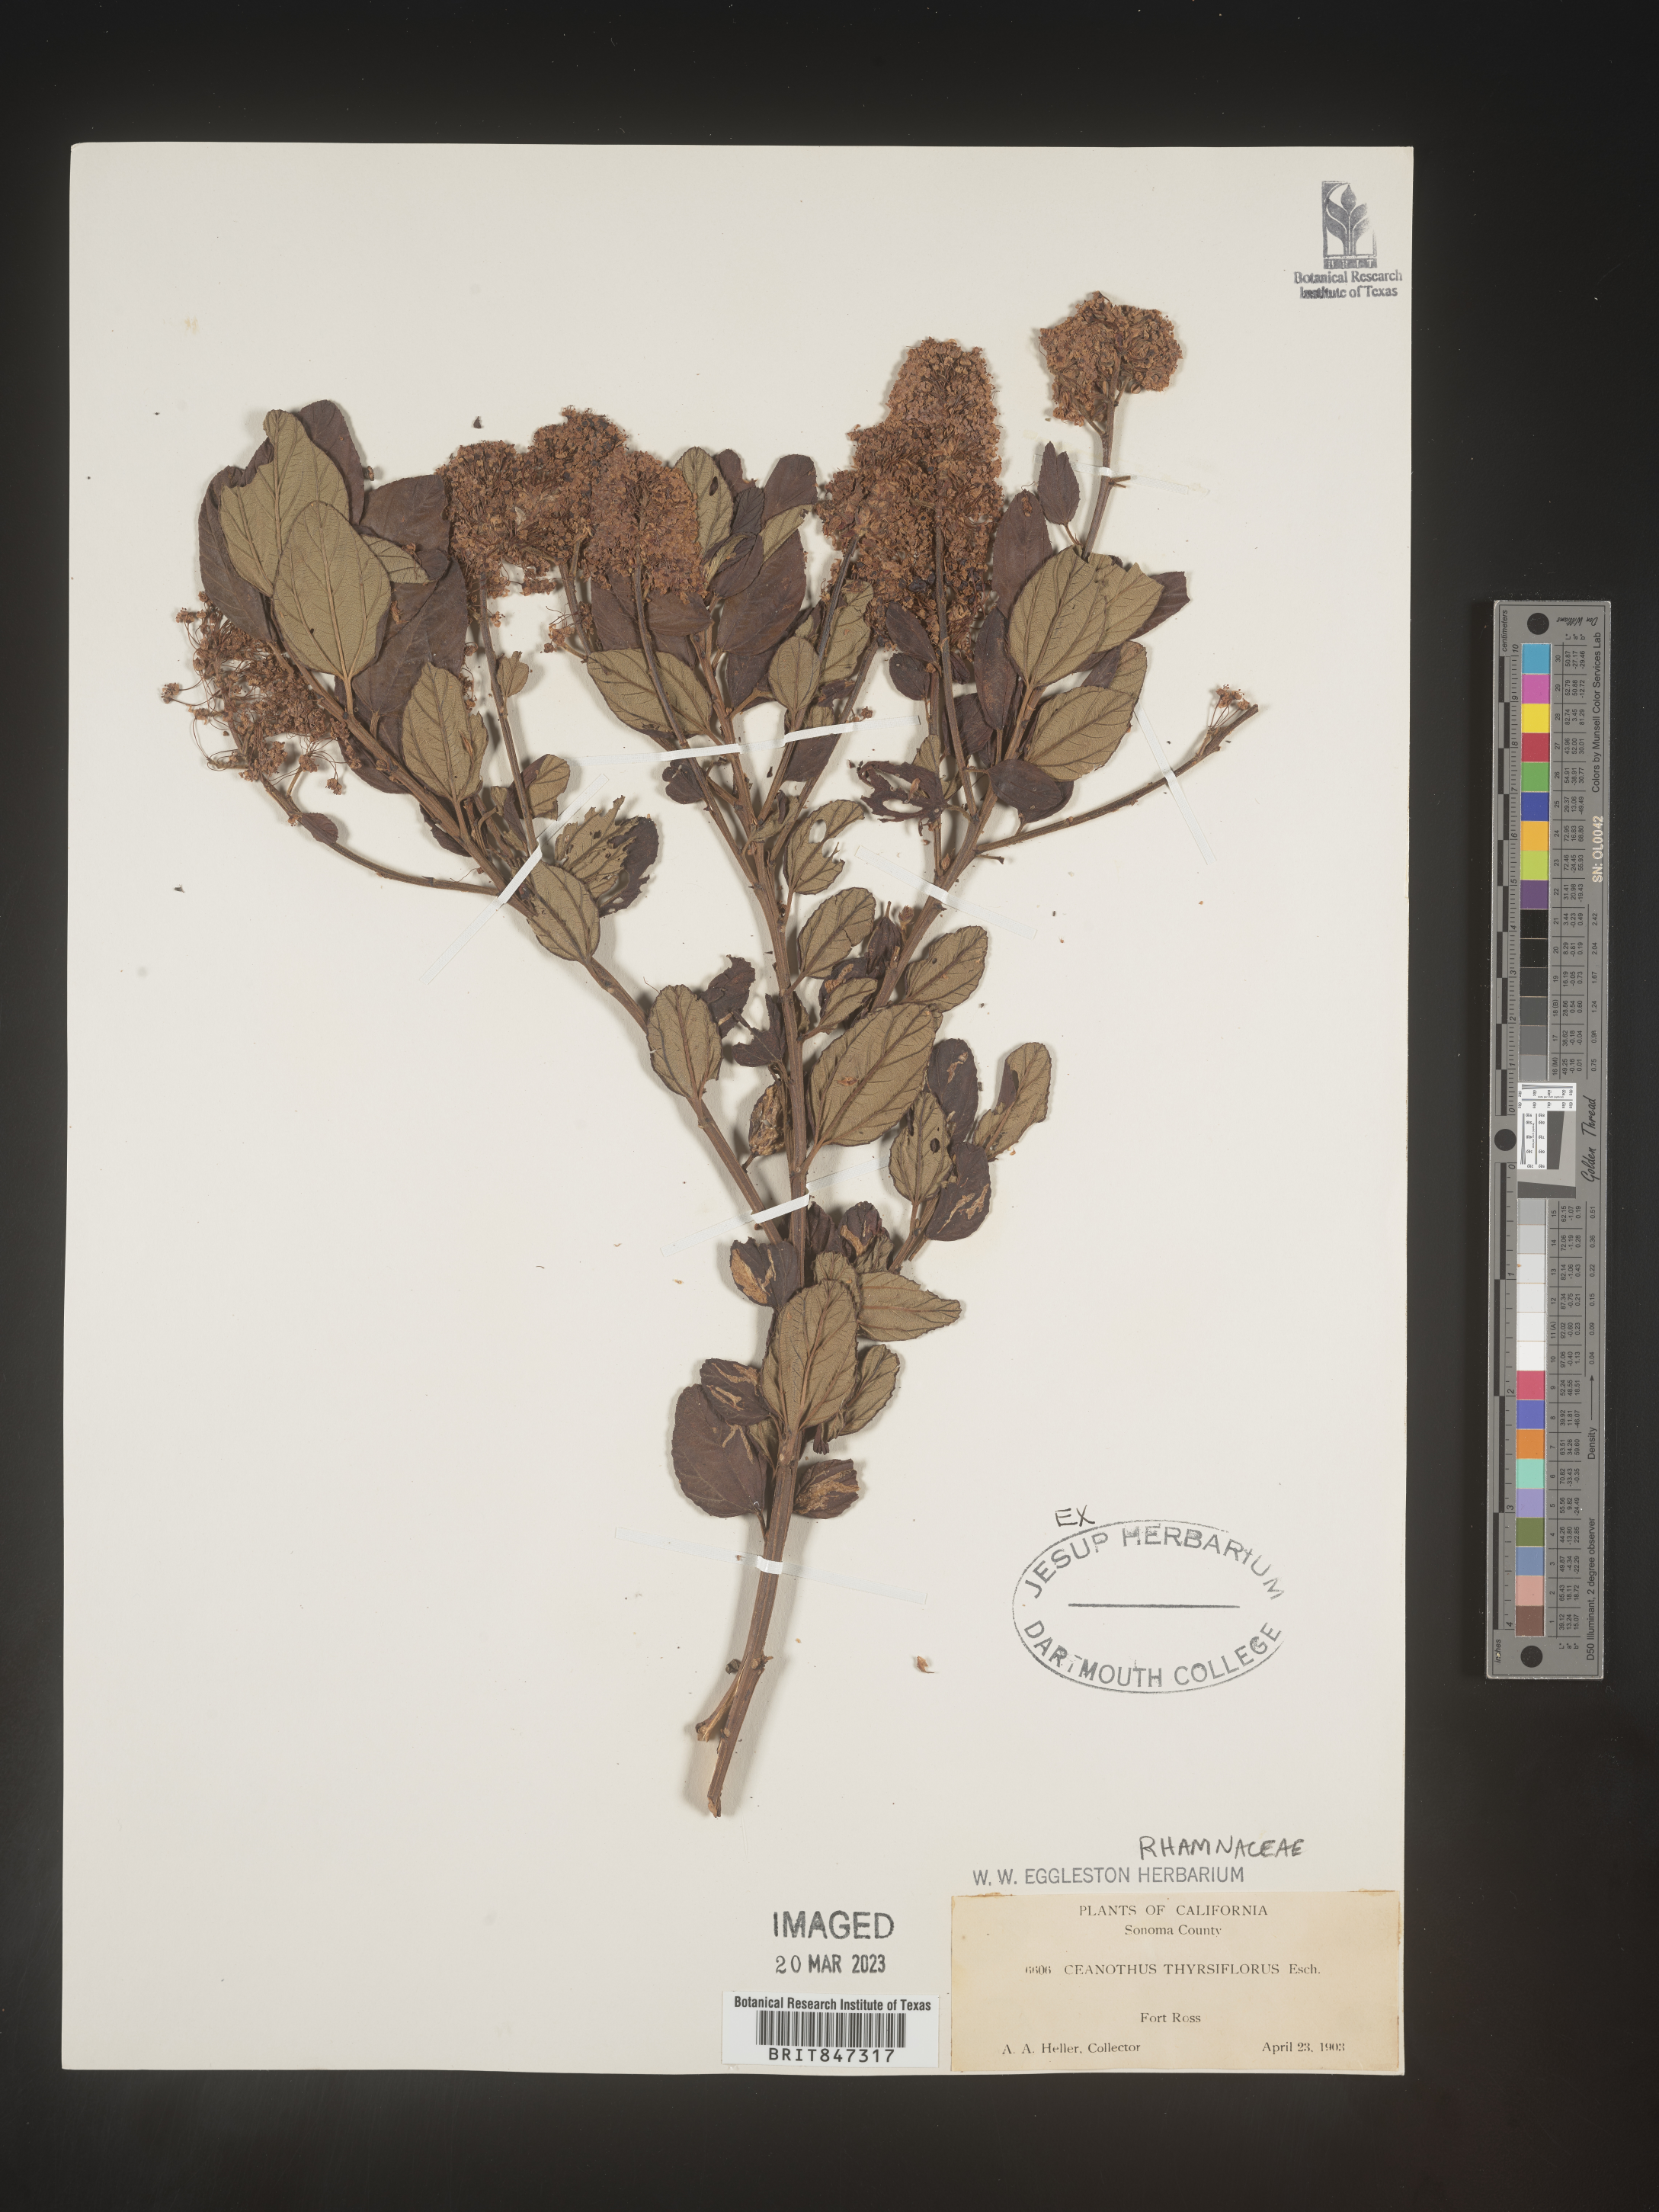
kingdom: Plantae
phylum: Tracheophyta
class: Magnoliopsida
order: Rosales
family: Rhamnaceae
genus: Ceanothus
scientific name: Ceanothus
